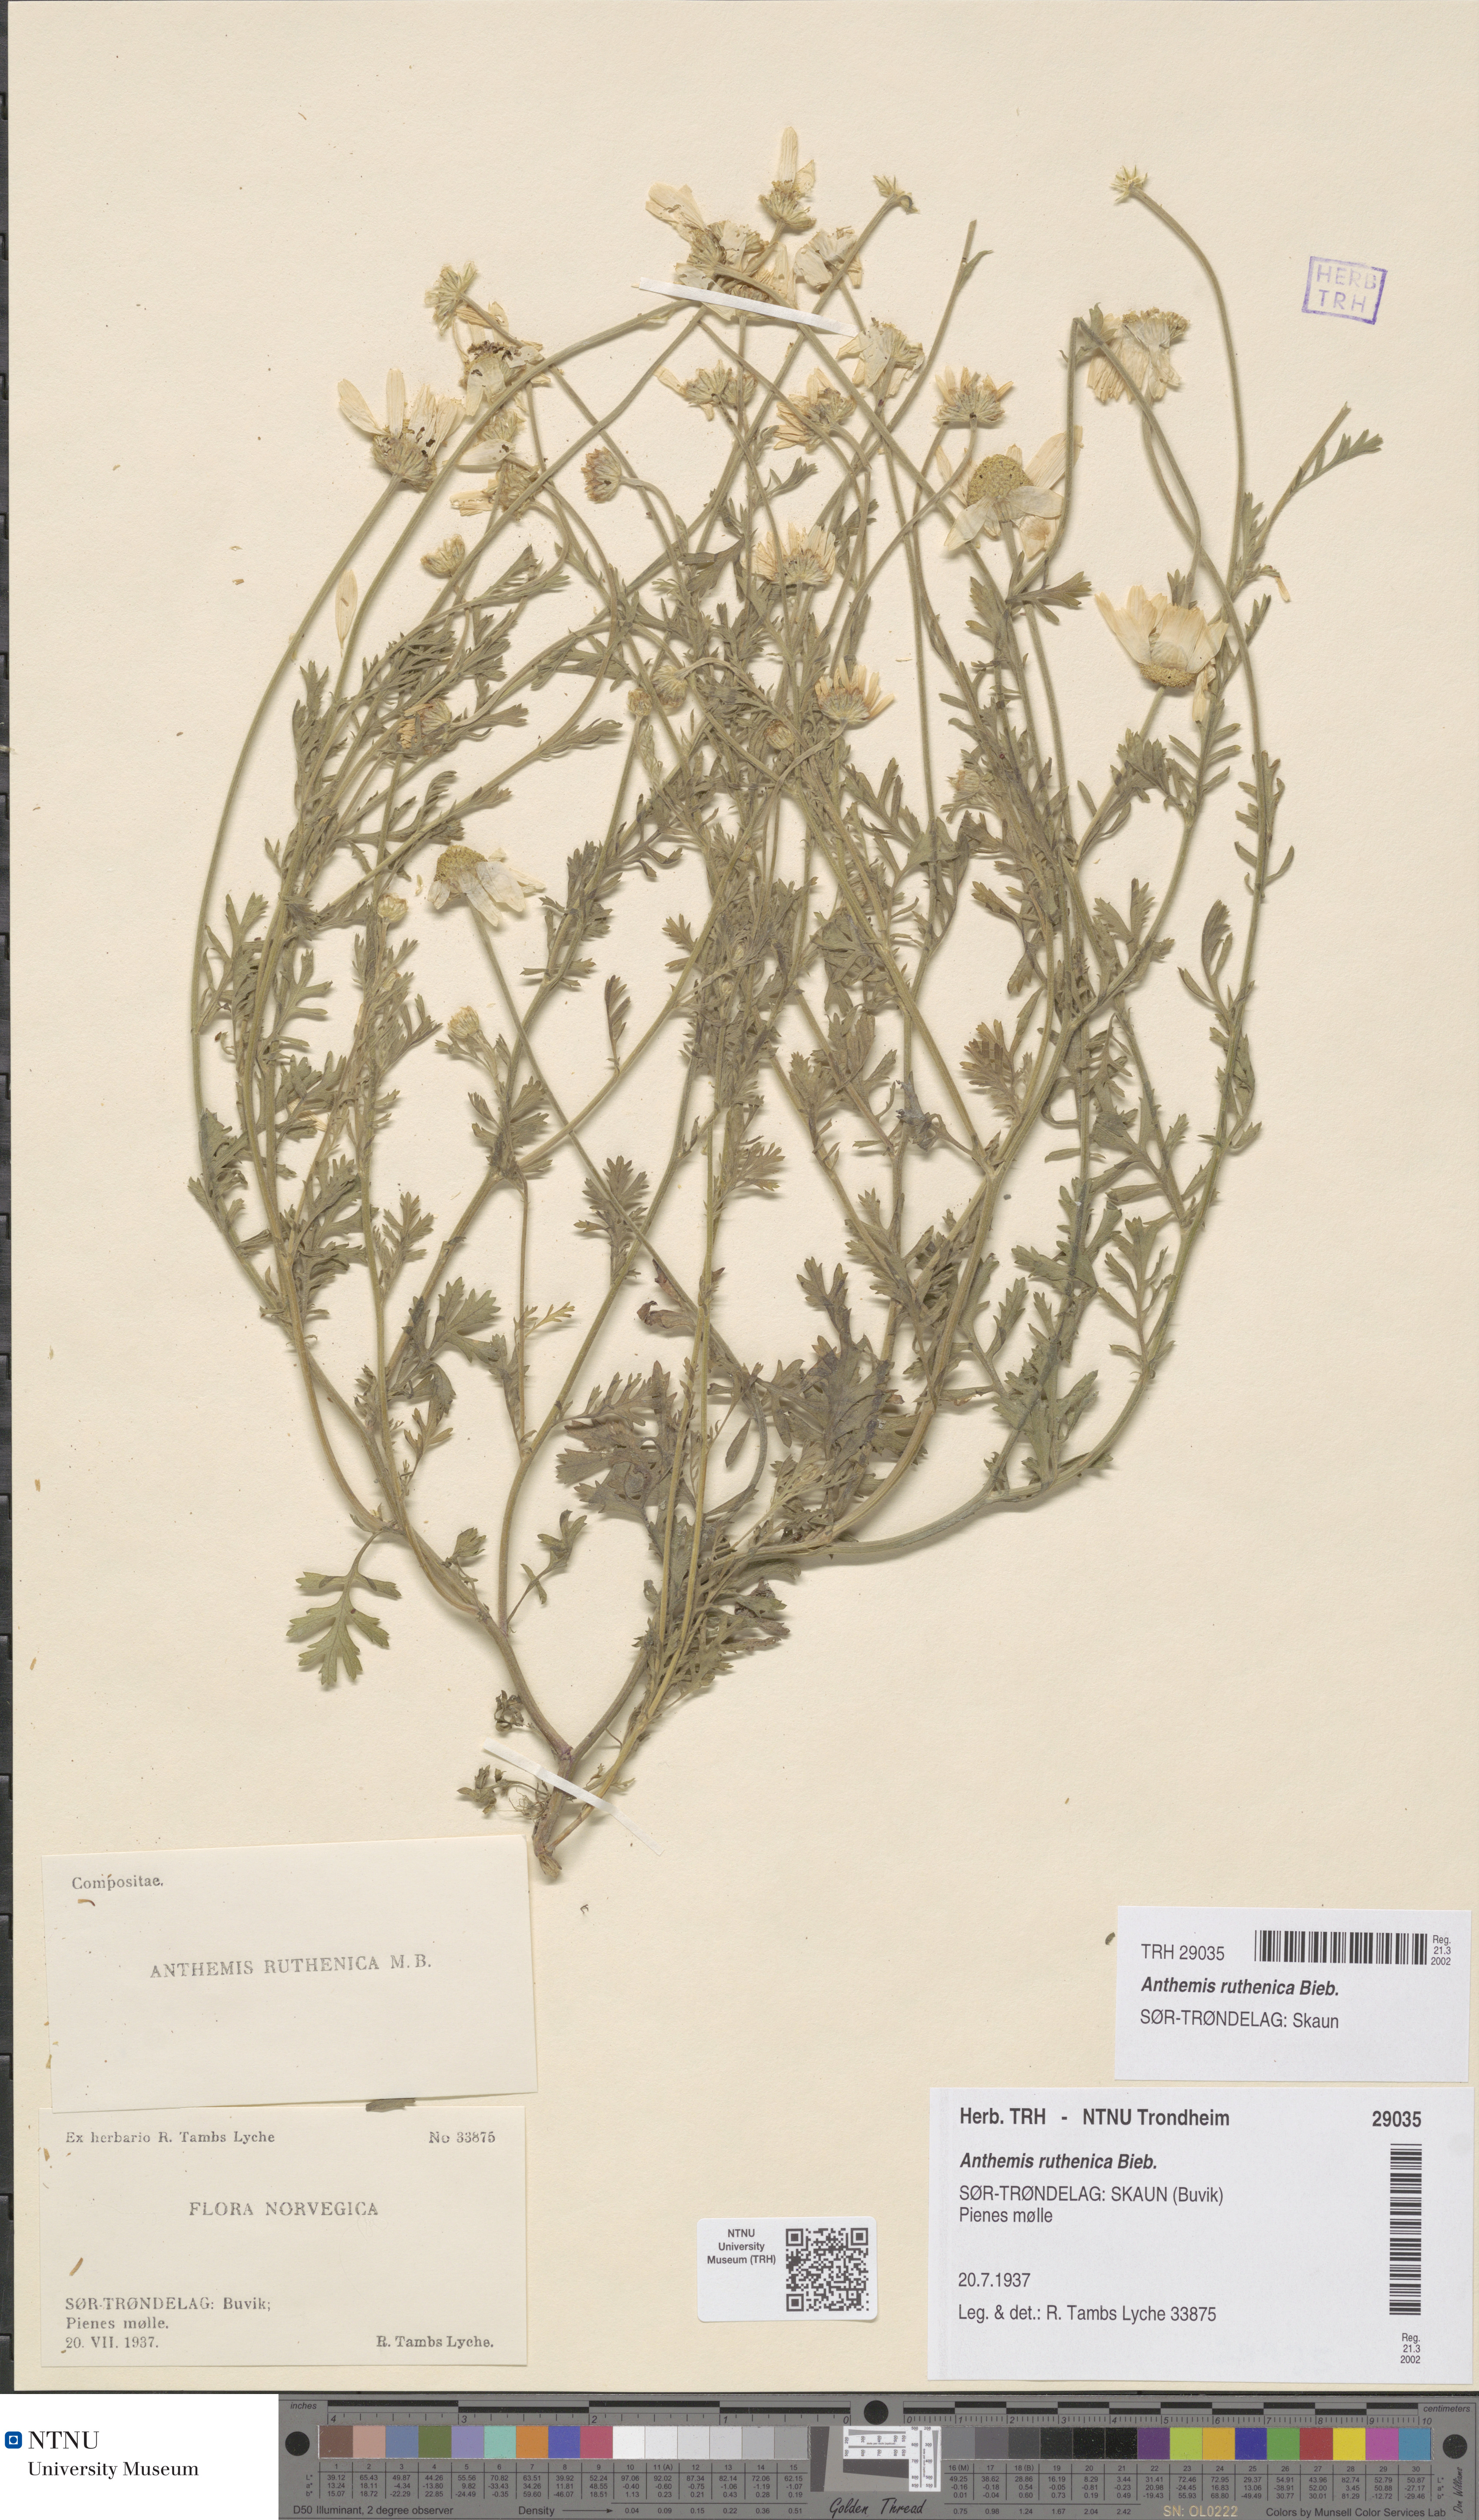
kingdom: Plantae
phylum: Tracheophyta
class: Magnoliopsida
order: Asterales
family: Asteraceae
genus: Anthemis
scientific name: Anthemis ruthenica
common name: Eastern chamomile
